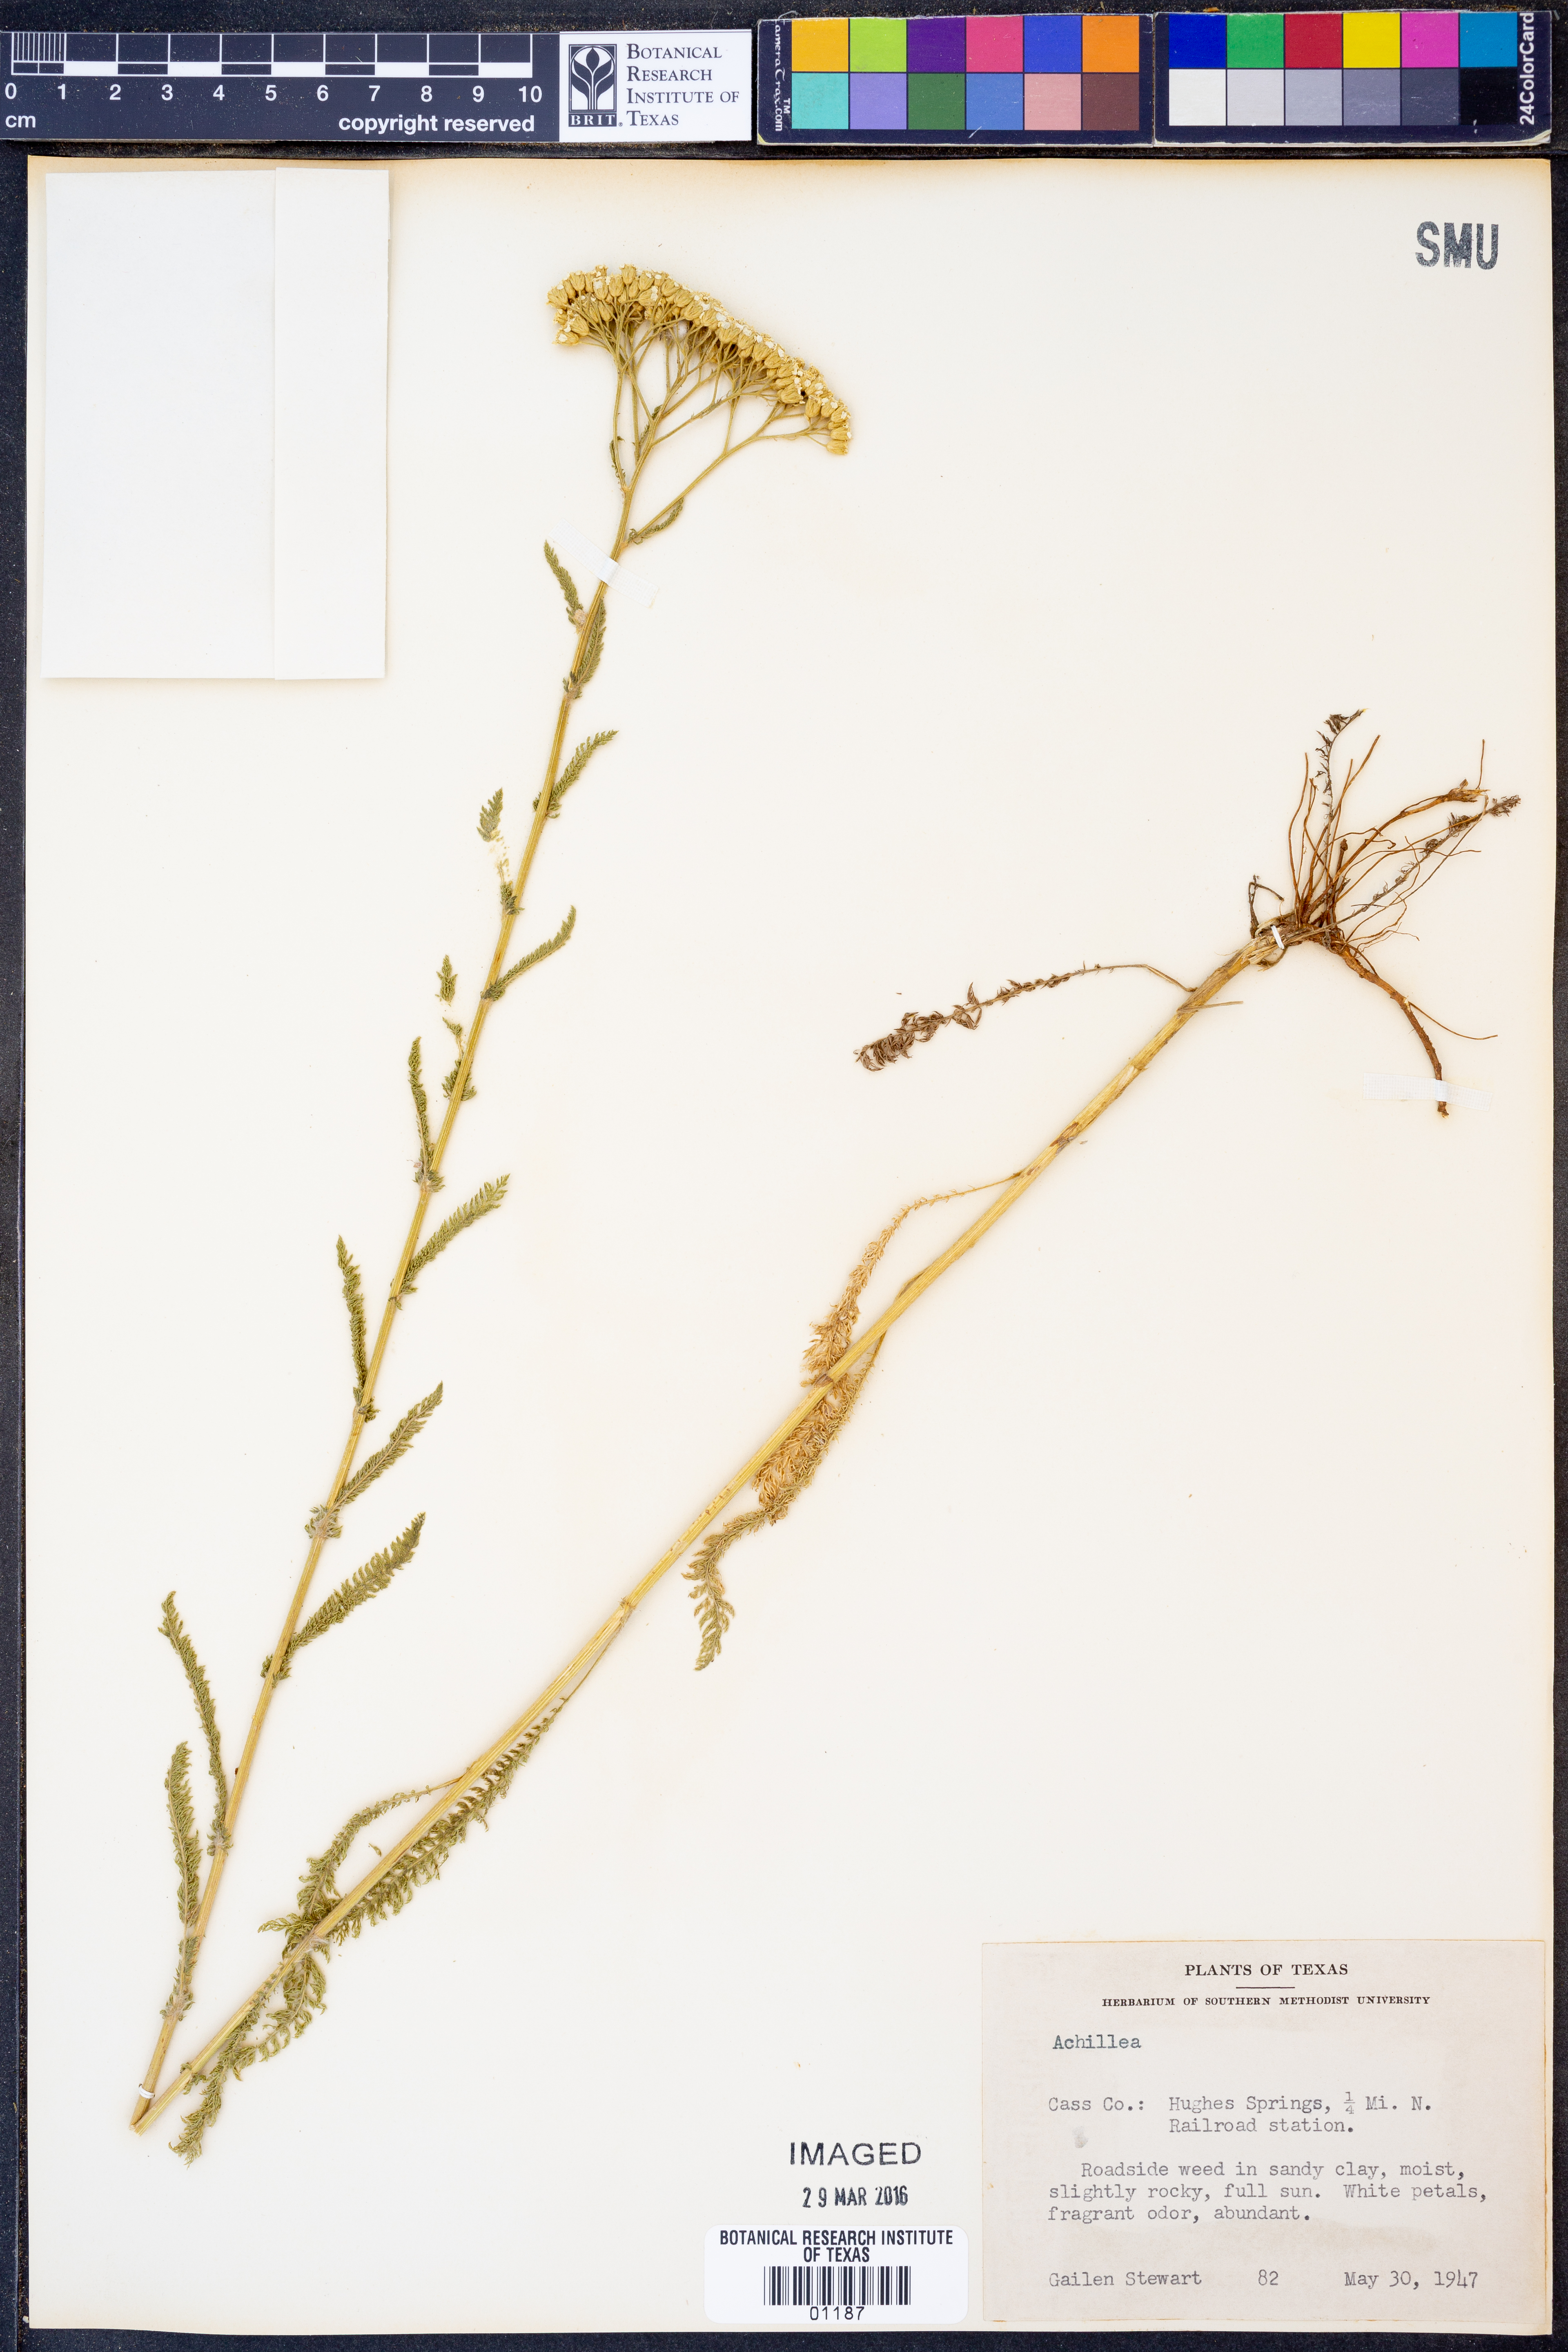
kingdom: Plantae
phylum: Tracheophyta
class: Magnoliopsida
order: Asterales
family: Asteraceae
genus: Achillea
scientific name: Achillea
